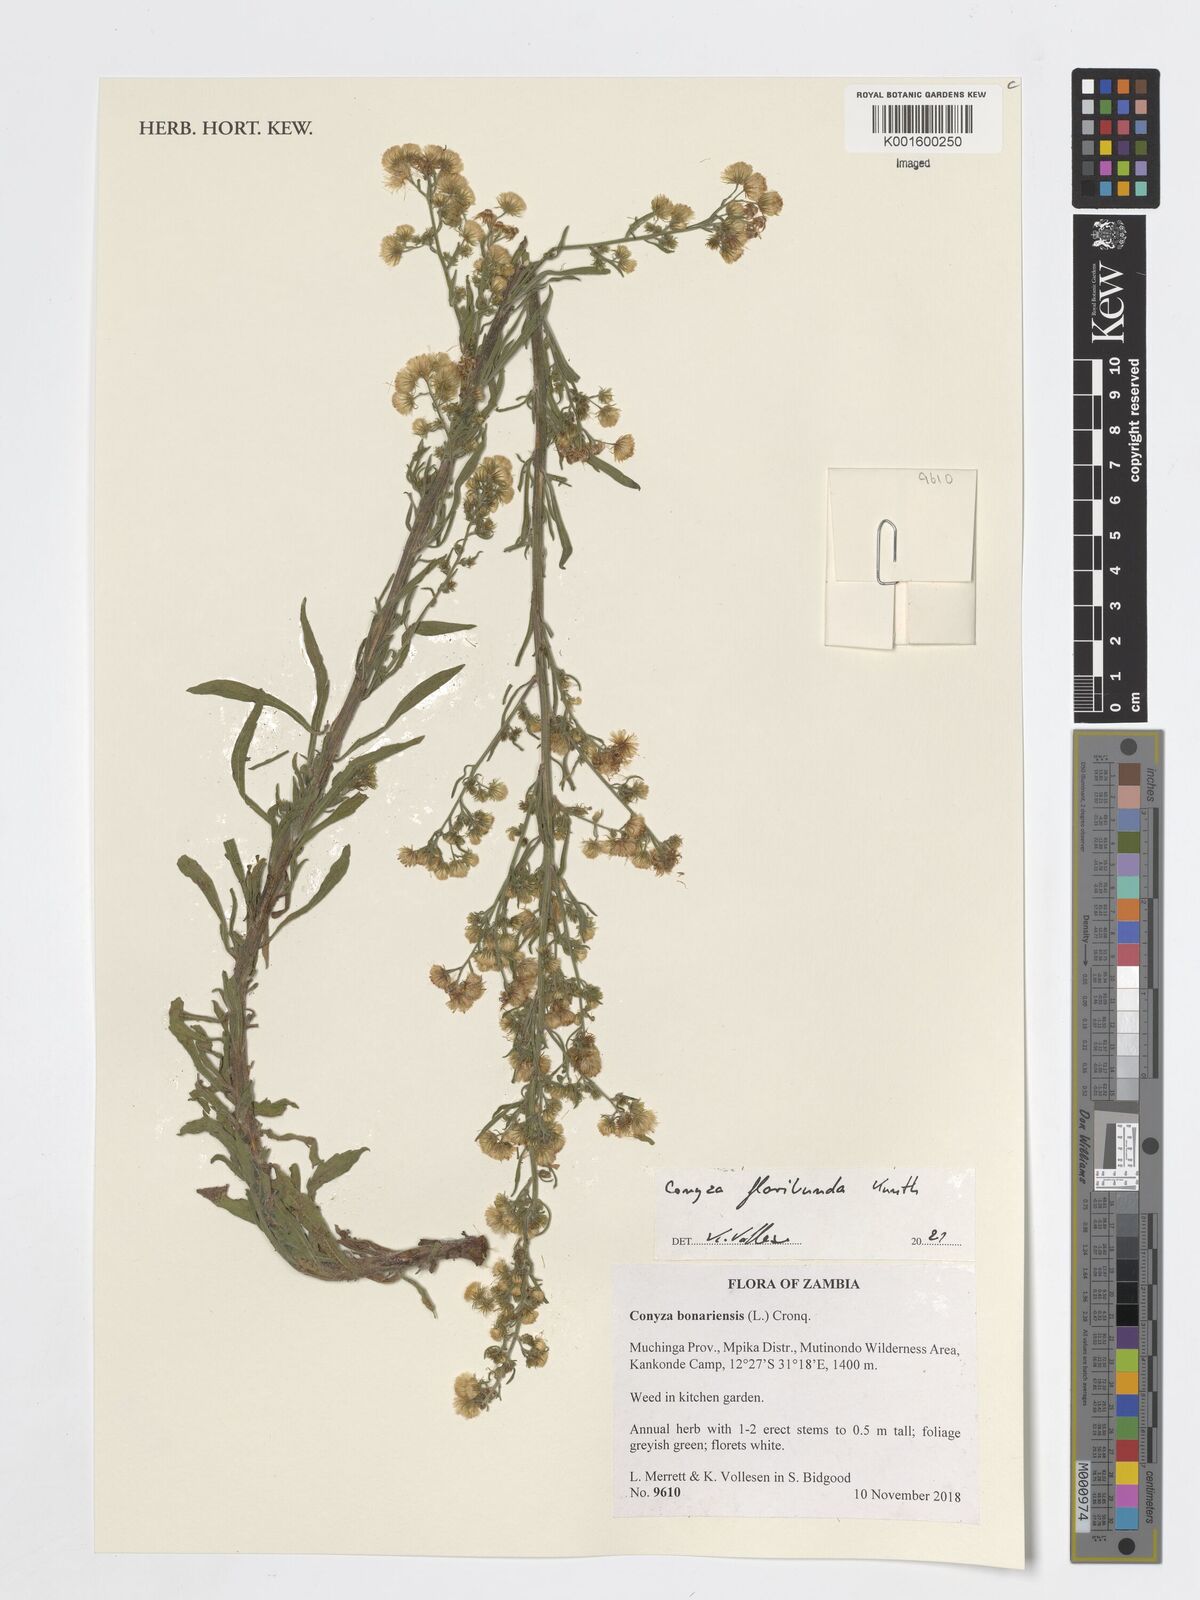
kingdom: Plantae
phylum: Tracheophyta
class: Magnoliopsida
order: Asterales
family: Asteraceae
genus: Erigeron
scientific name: Erigeron floribundus
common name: Bilbao fleabane
